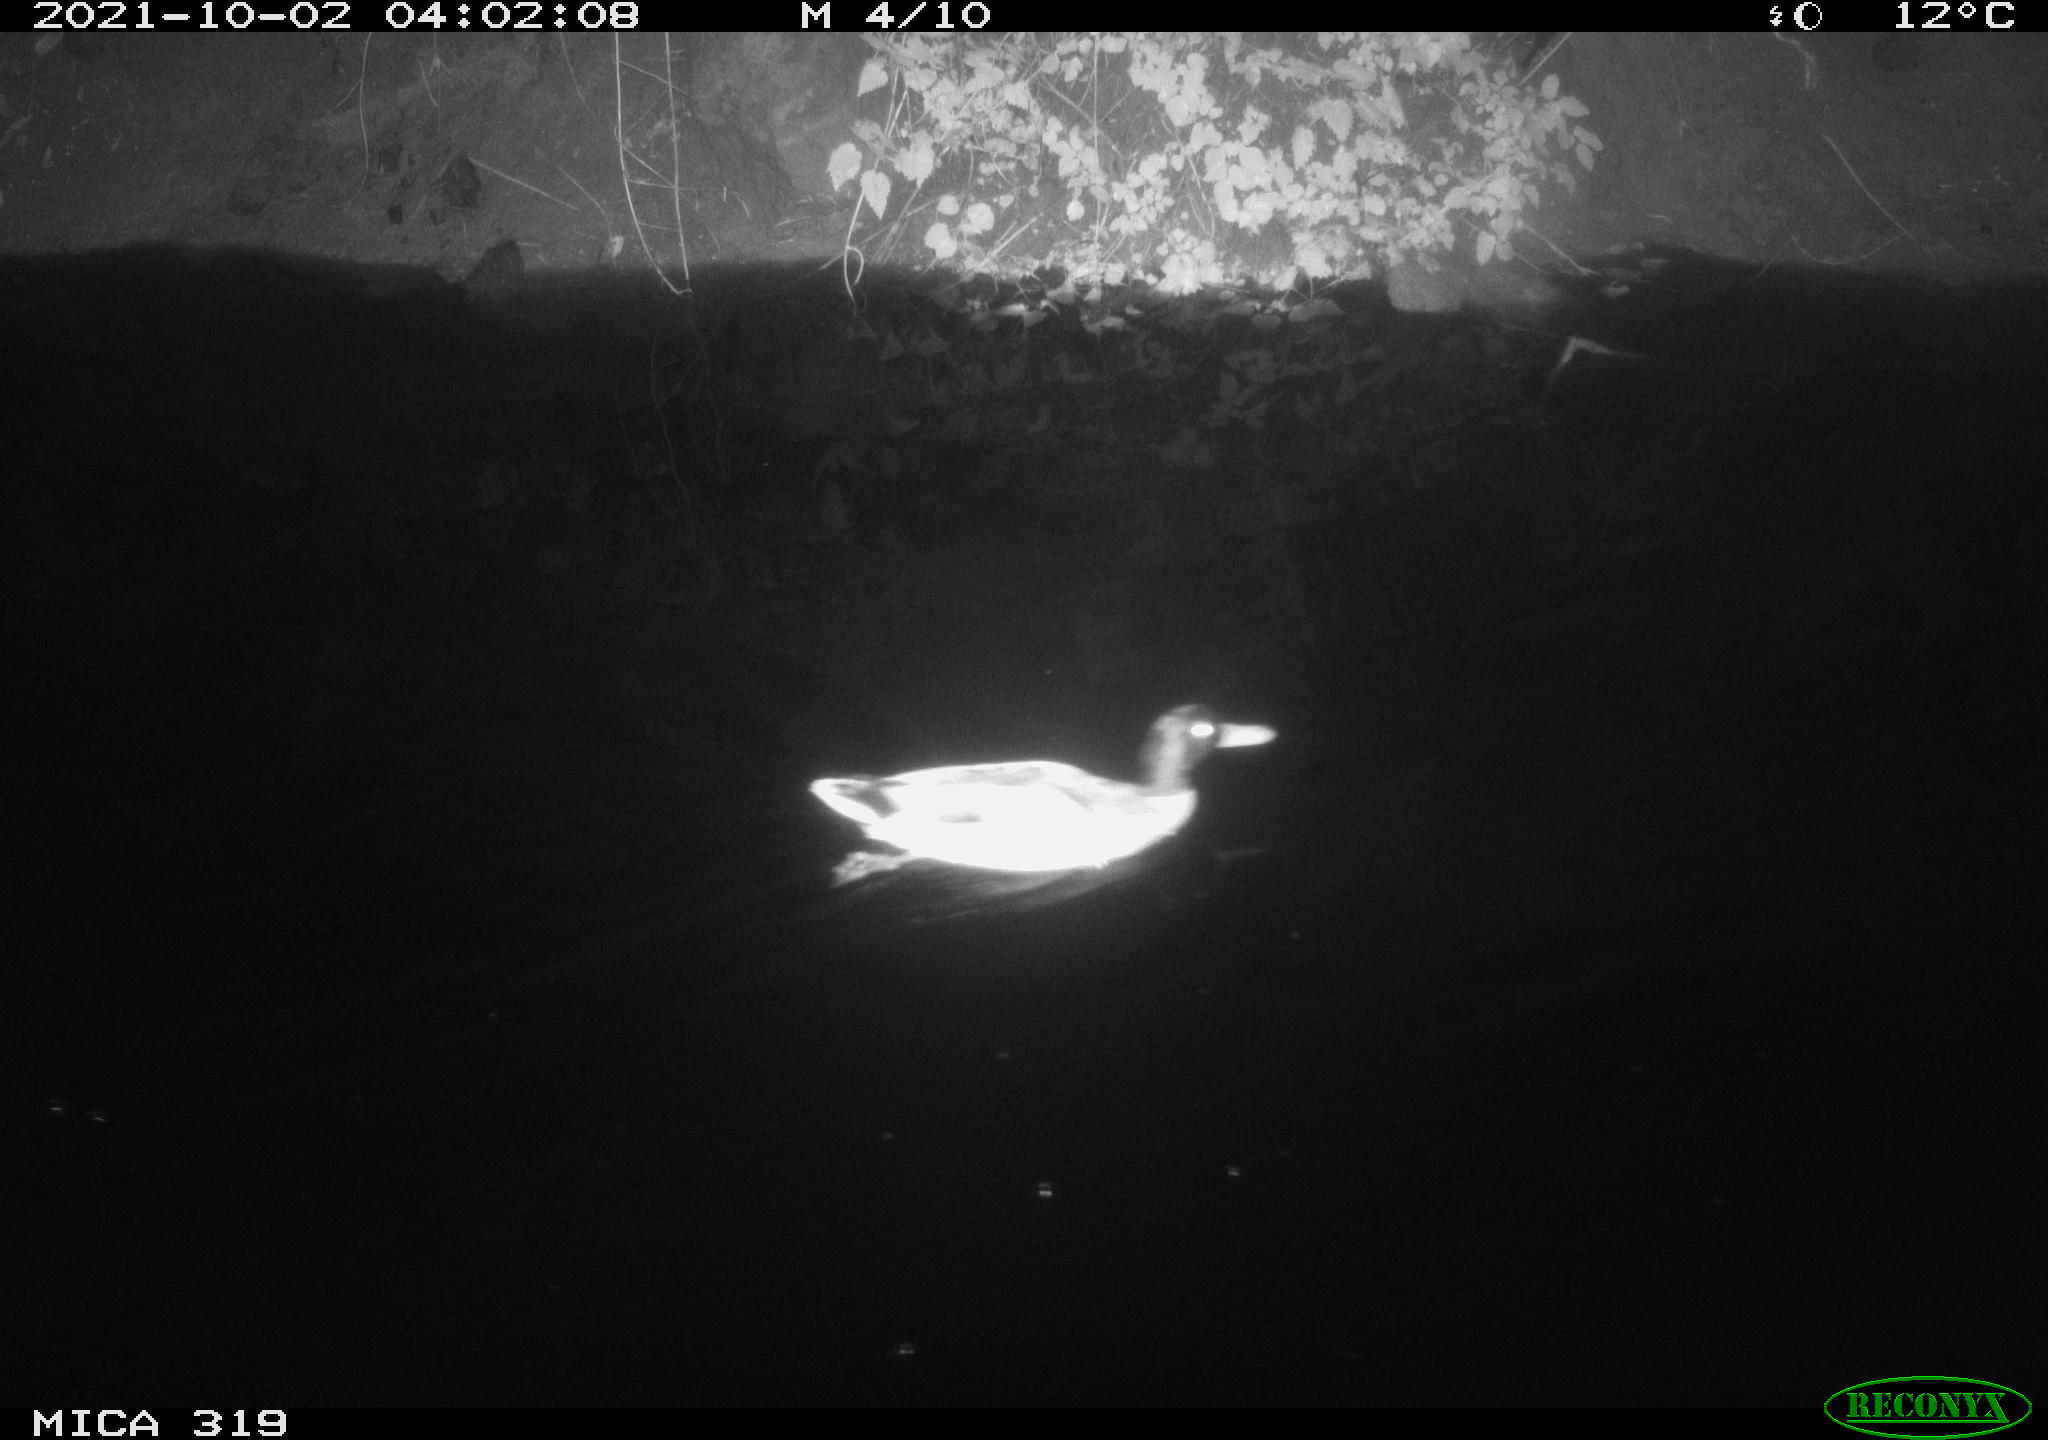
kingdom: Animalia
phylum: Chordata
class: Aves
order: Anseriformes
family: Anatidae
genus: Anas
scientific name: Anas platyrhynchos
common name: Mallard
